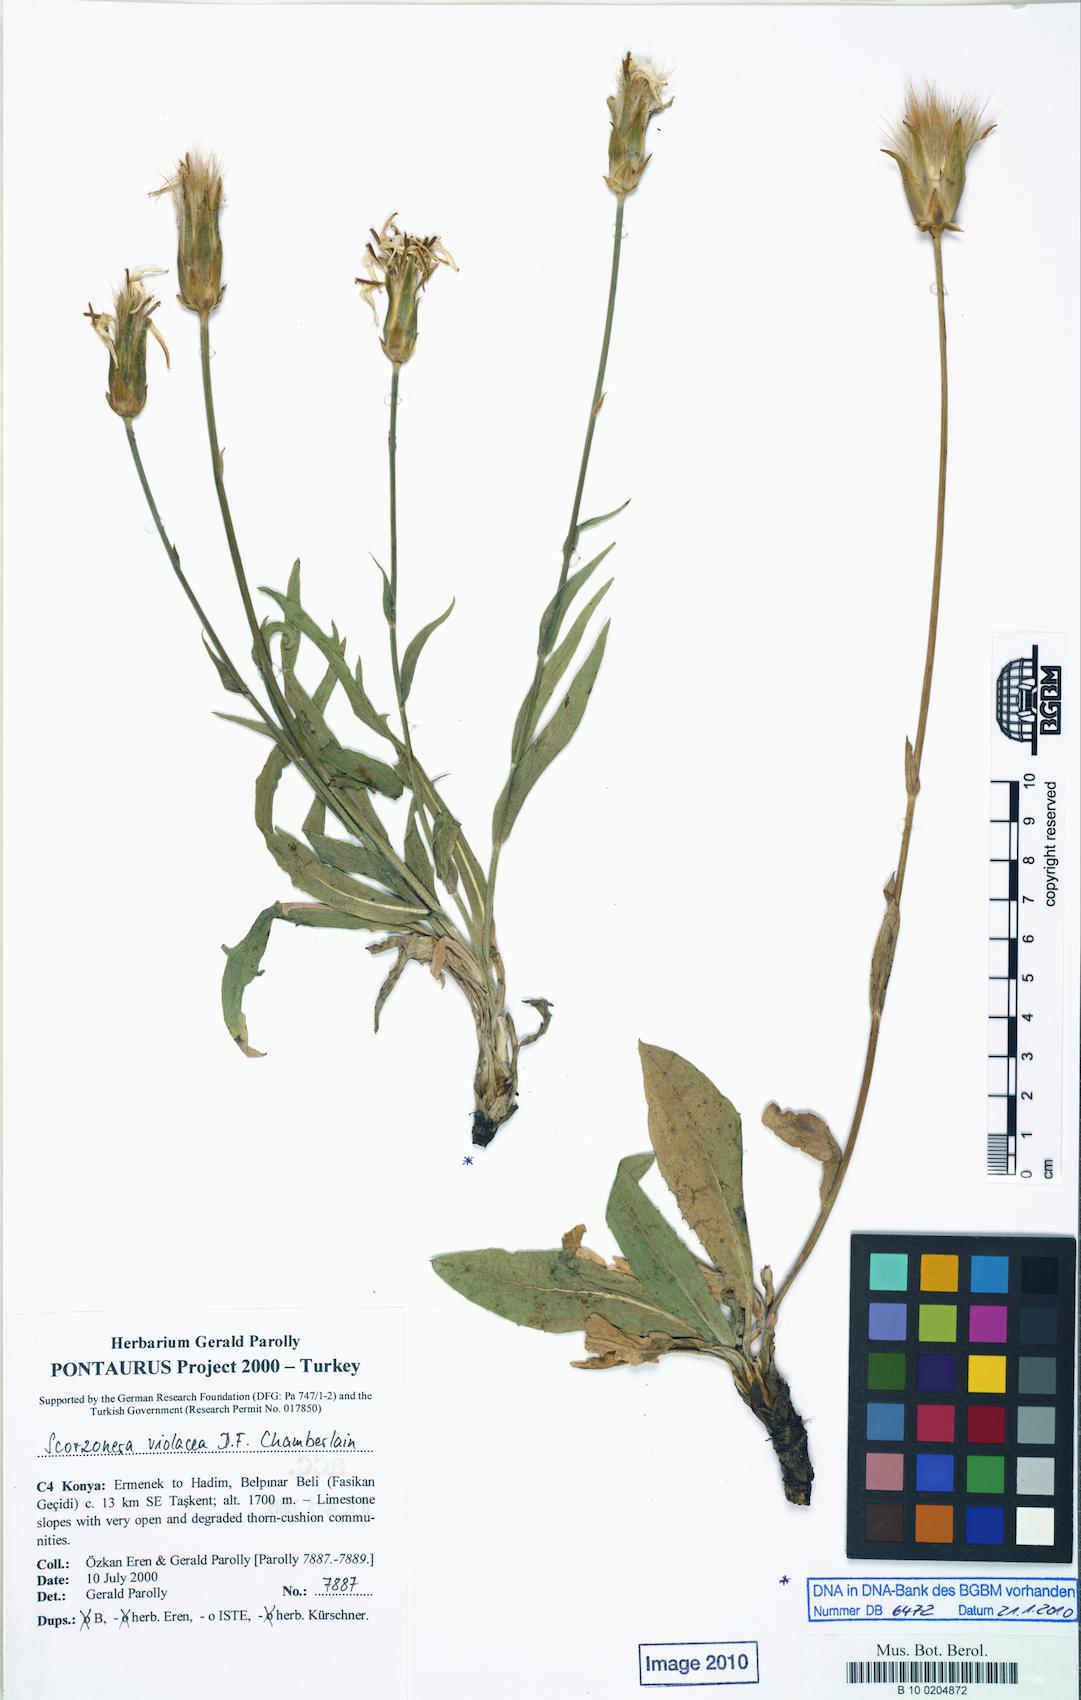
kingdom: Plantae
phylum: Tracheophyta
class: Magnoliopsida
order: Asterales
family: Asteraceae
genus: Aslia
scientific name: Aslia violacea
